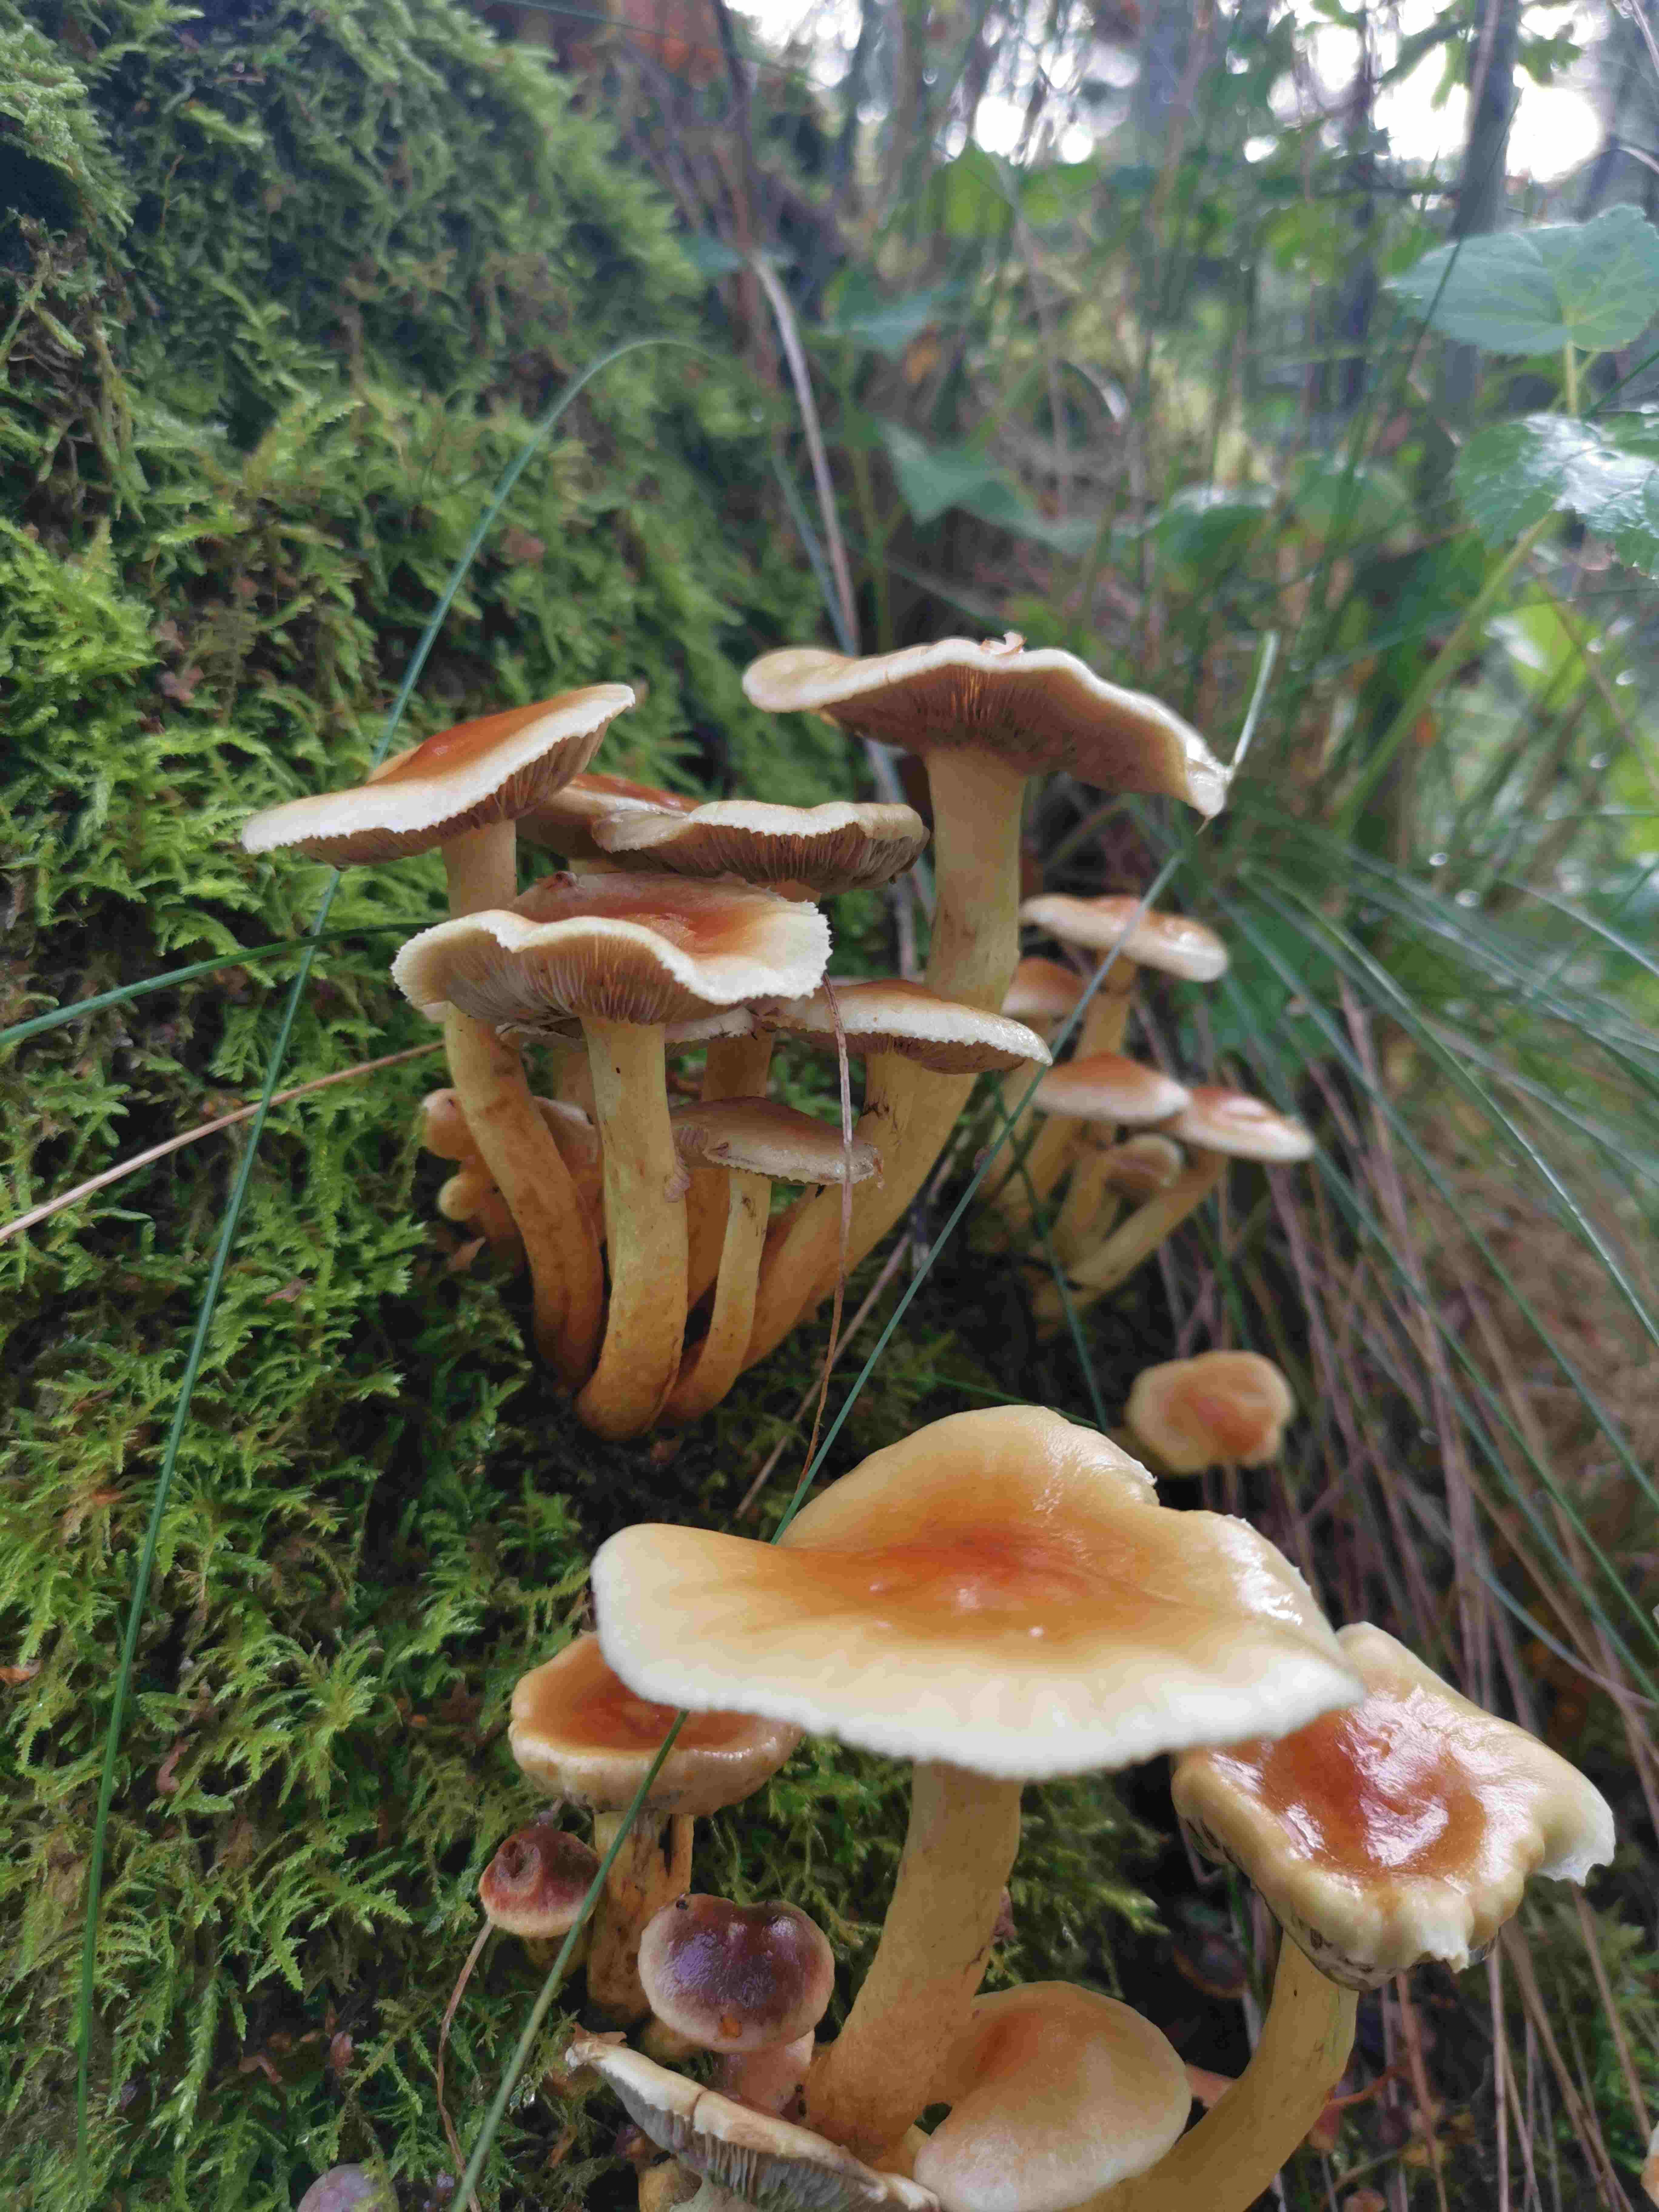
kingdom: Fungi
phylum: Basidiomycota
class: Agaricomycetes
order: Agaricales
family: Strophariaceae
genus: Hypholoma
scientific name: Hypholoma fasciculare
